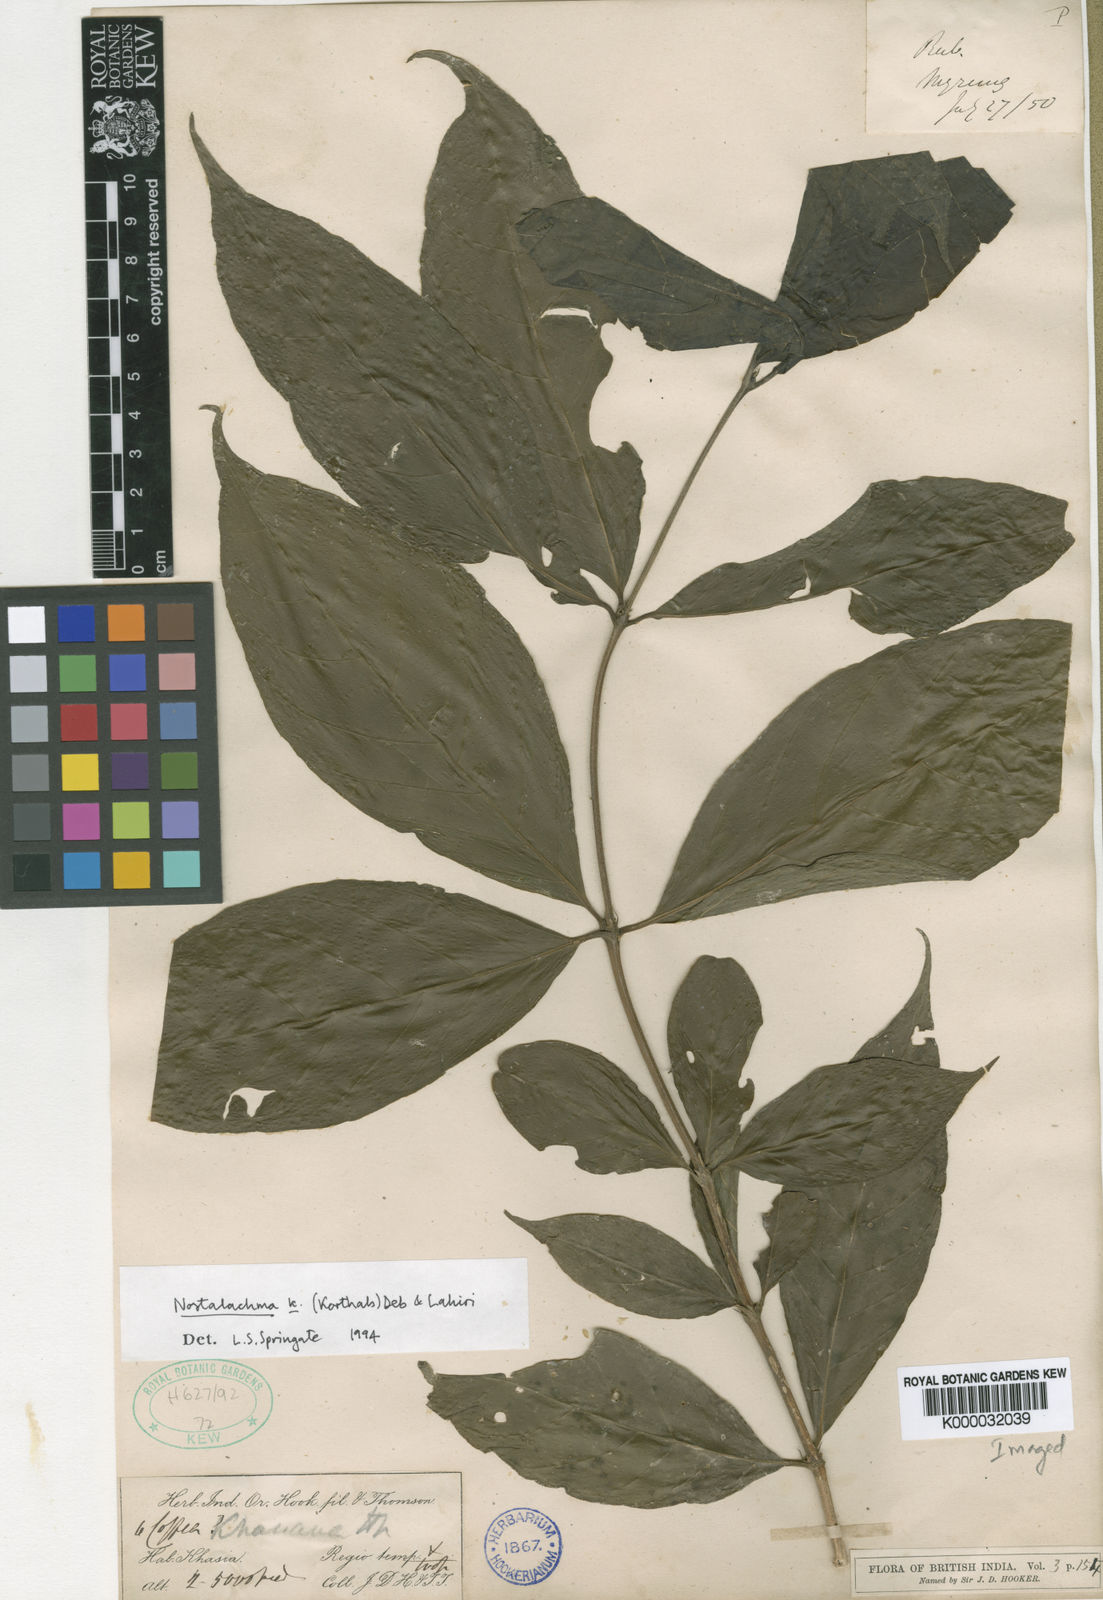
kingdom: Plantae
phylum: Tracheophyta
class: Magnoliopsida
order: Gentianales
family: Rubiaceae
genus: Nostolachma
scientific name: Nostolachma triflorum
